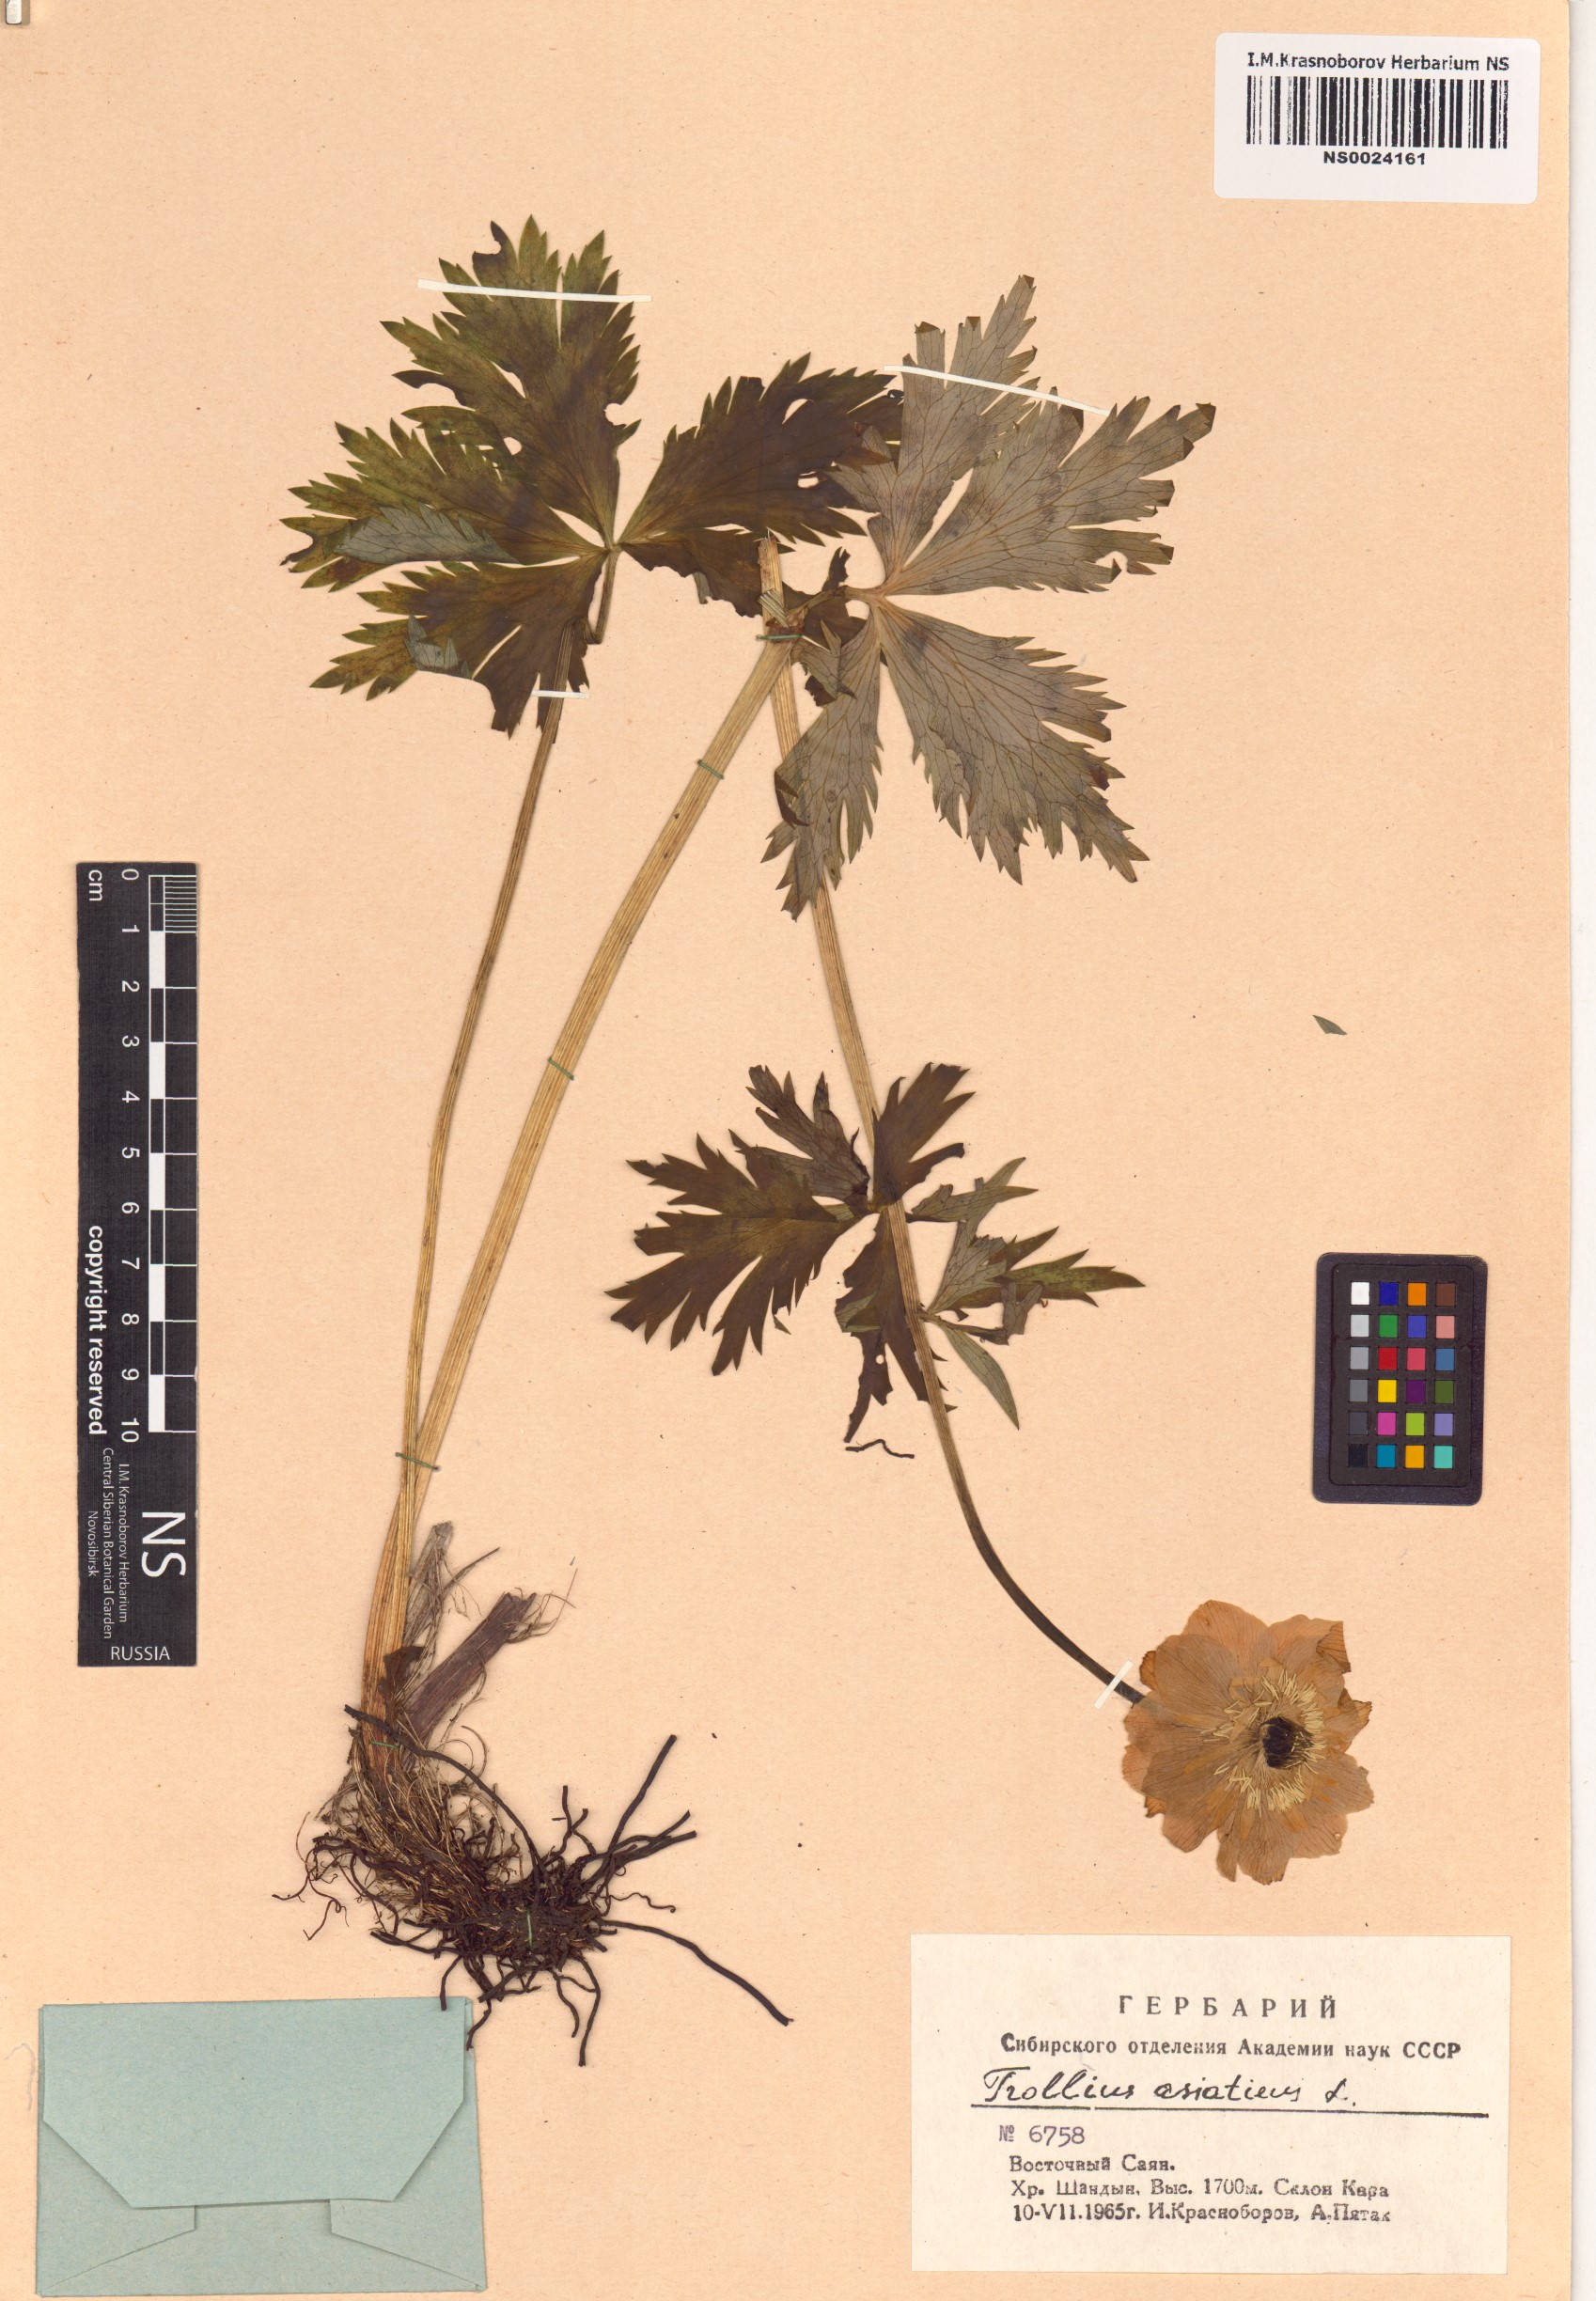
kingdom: Plantae
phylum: Tracheophyta
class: Magnoliopsida
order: Ranunculales
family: Ranunculaceae
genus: Trollius
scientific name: Trollius asiaticus
